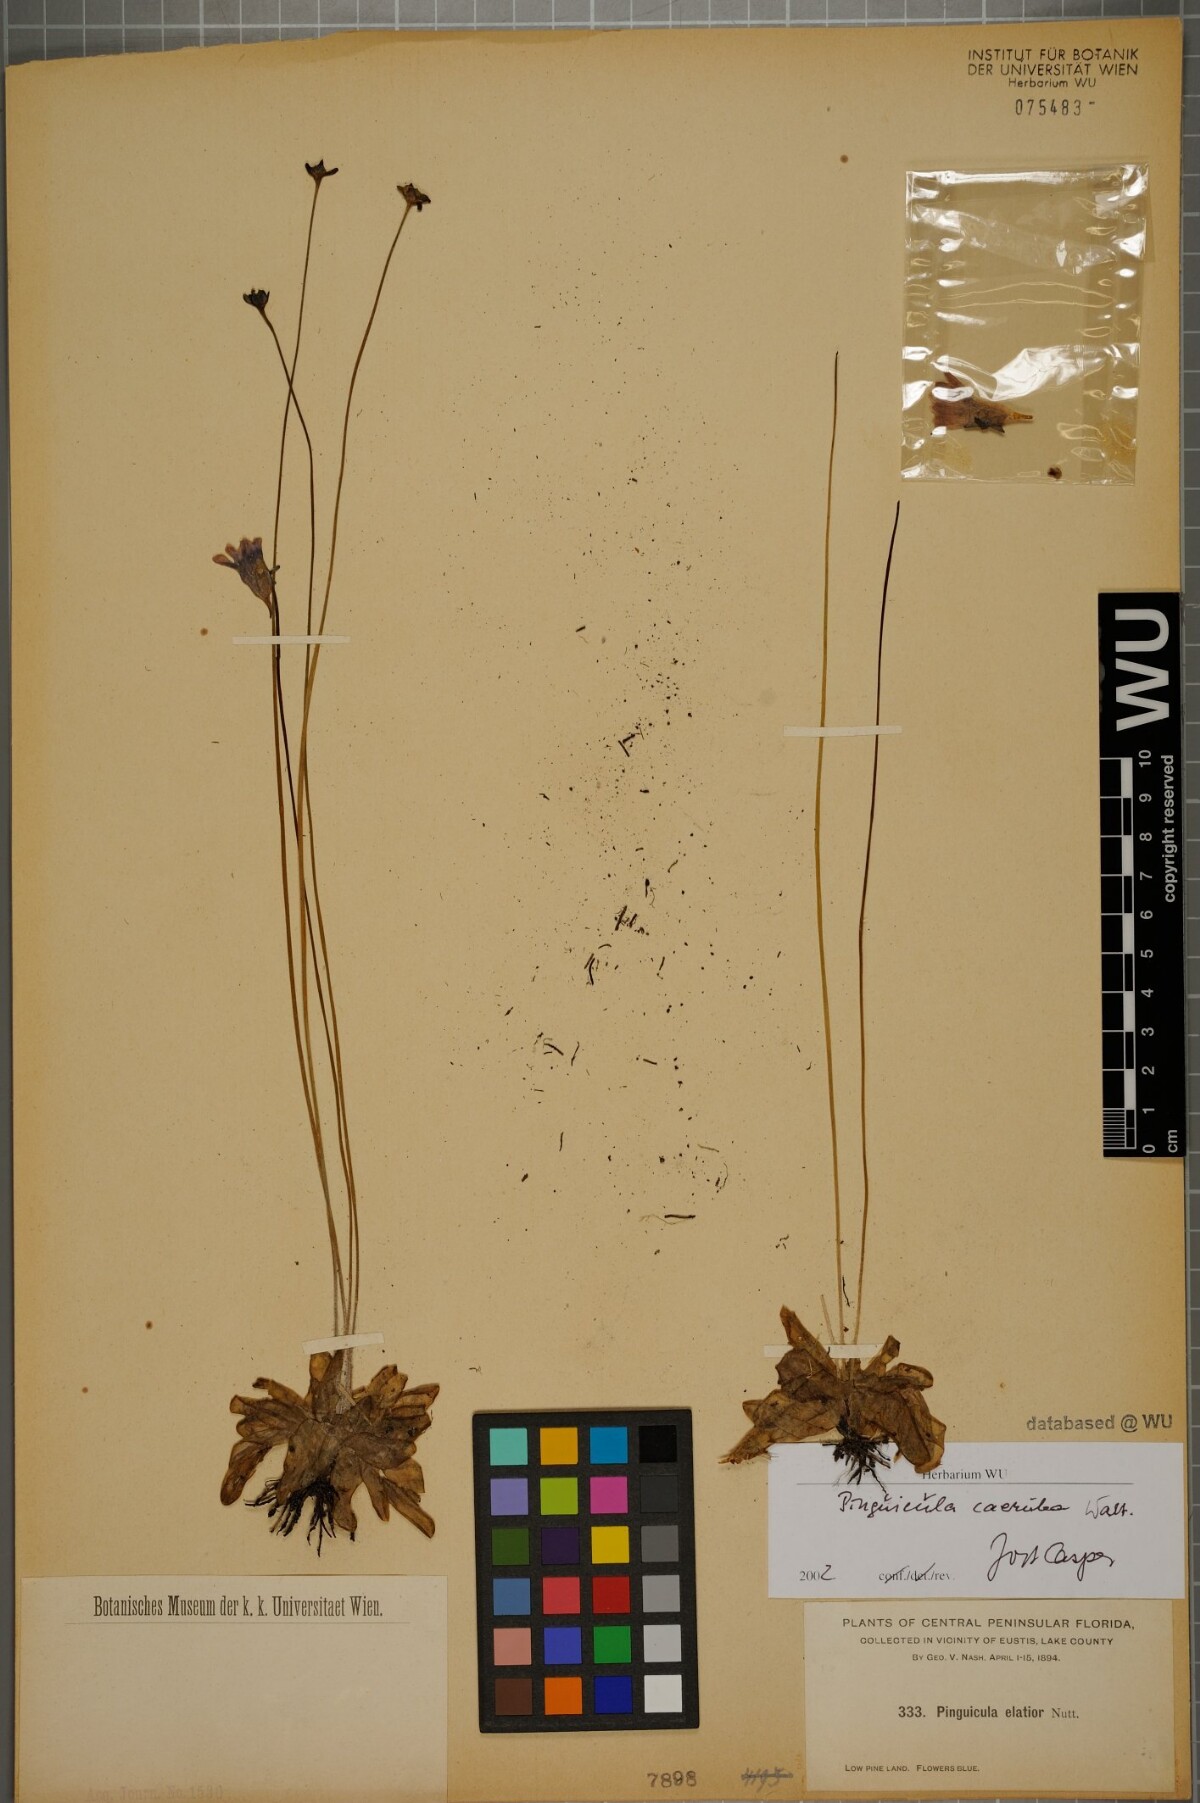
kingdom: Plantae
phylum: Tracheophyta
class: Magnoliopsida
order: Lamiales
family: Lentibulariaceae
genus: Pinguicula
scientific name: Pinguicula caerulea
